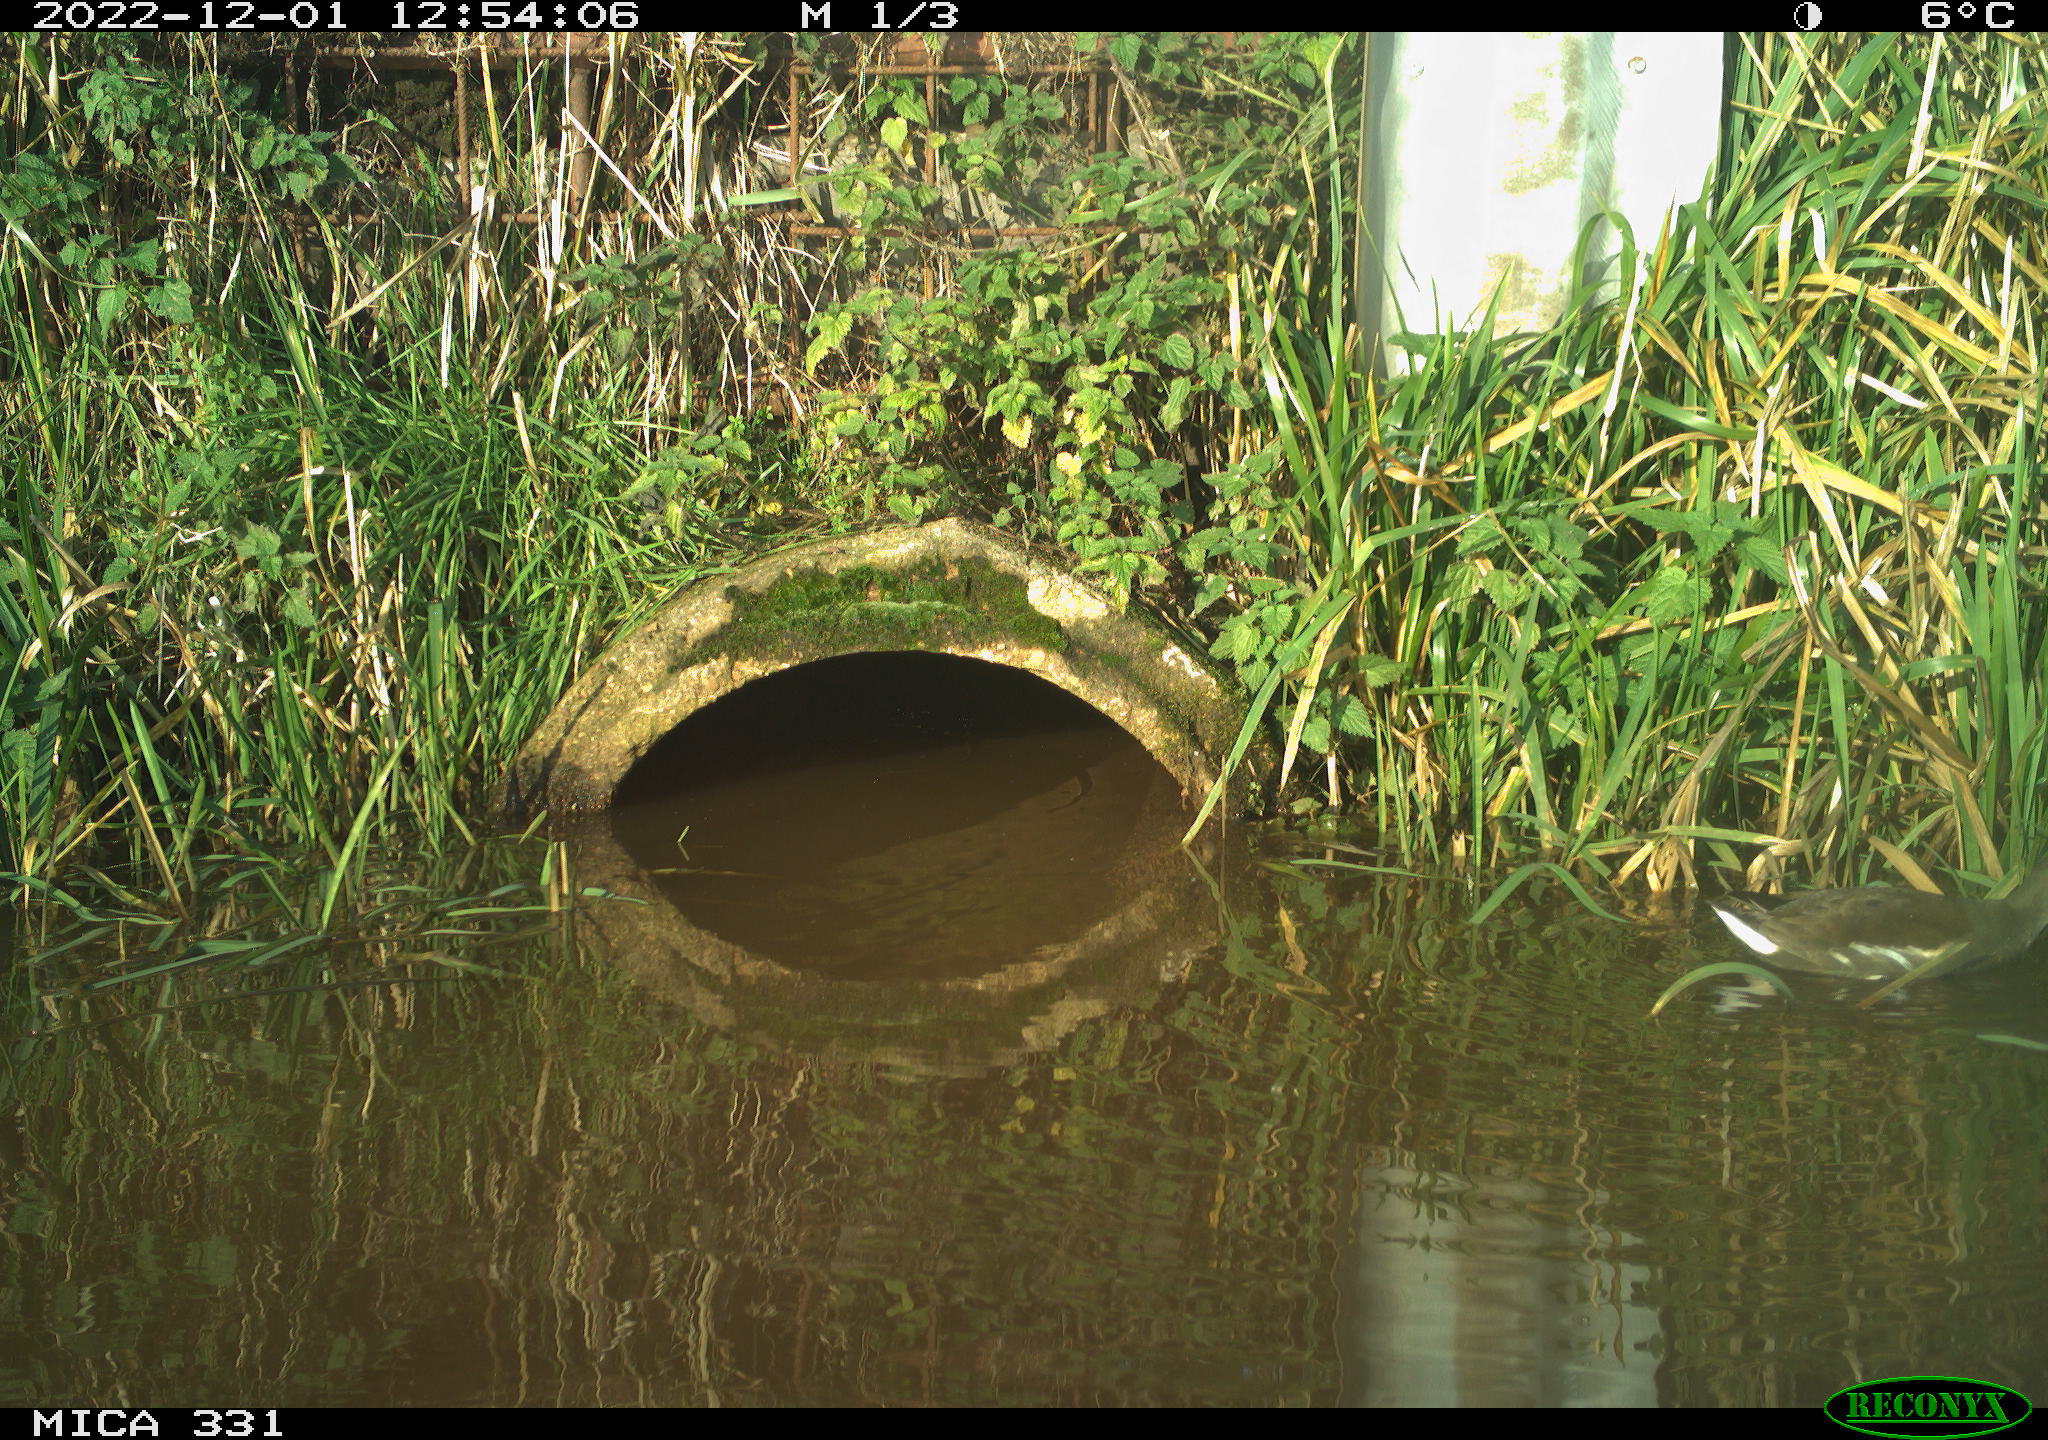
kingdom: Animalia
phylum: Chordata
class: Aves
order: Gruiformes
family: Rallidae
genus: Gallinula
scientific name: Gallinula chloropus
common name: Common moorhen
